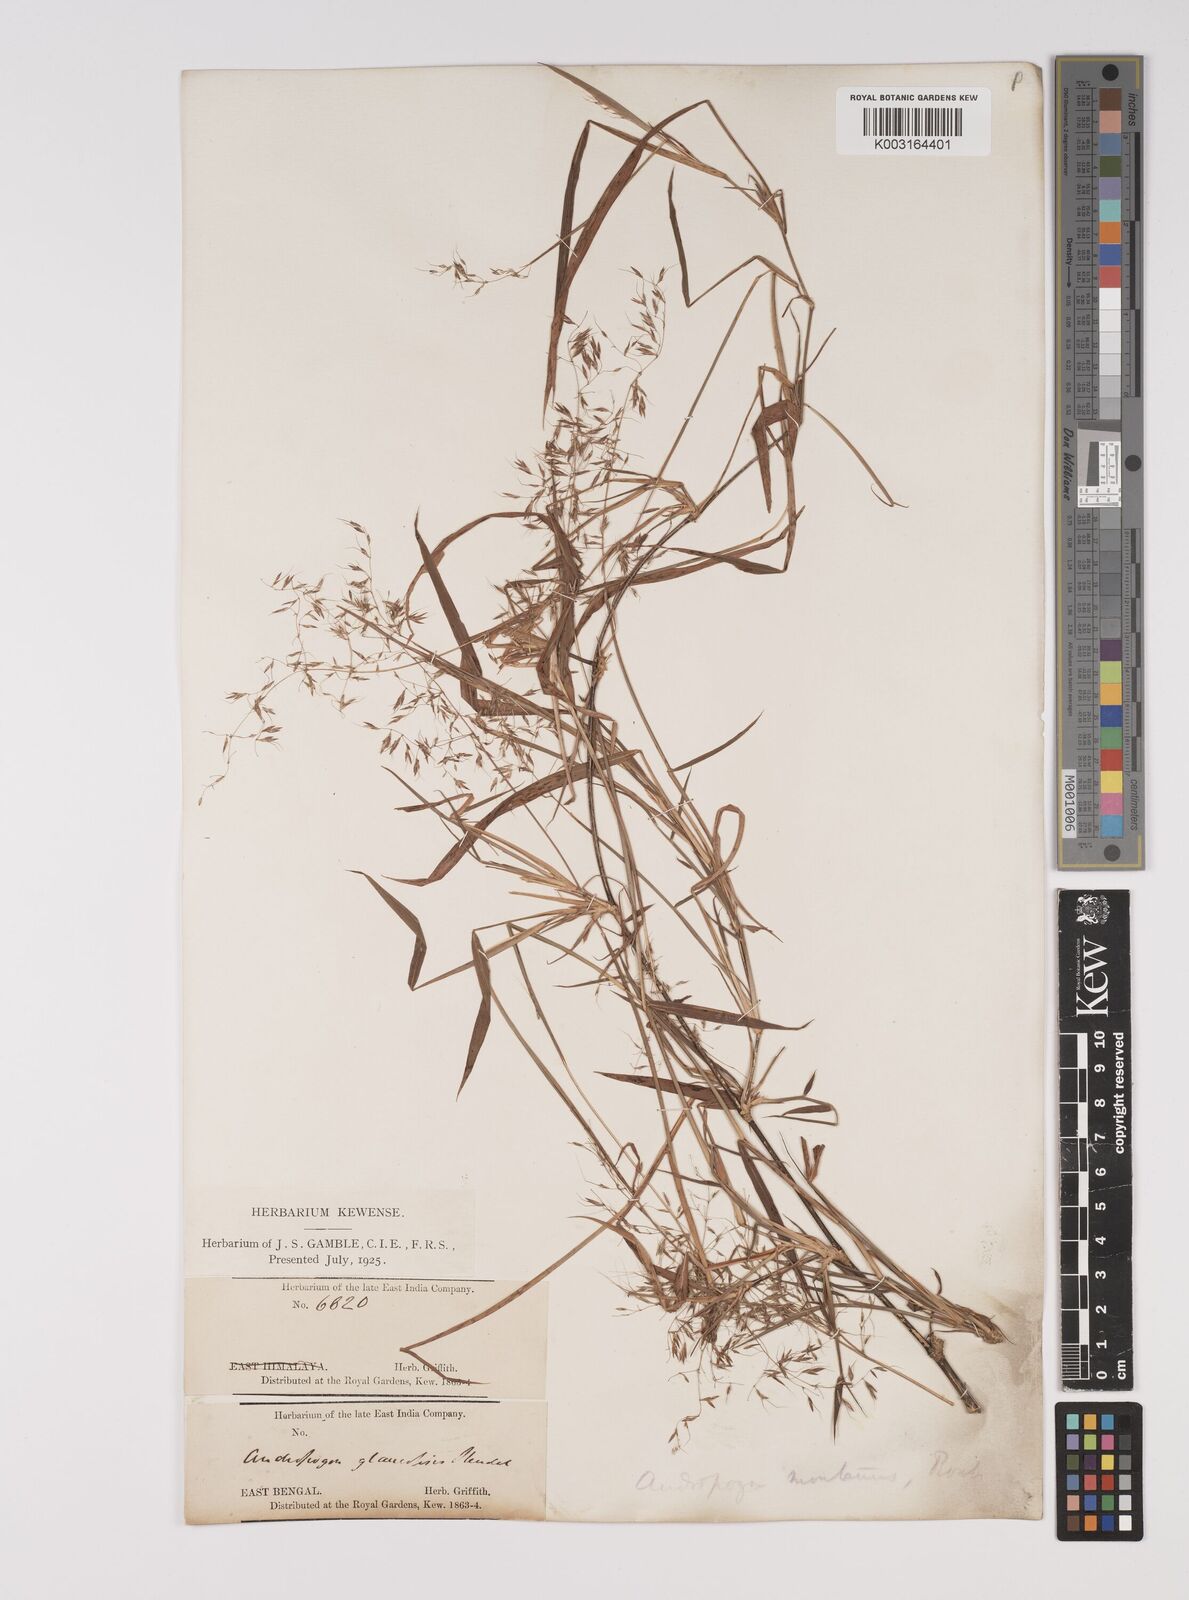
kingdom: Plantae
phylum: Tracheophyta
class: Liliopsida
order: Poales
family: Poaceae
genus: Capillipedium
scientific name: Capillipedium assimile
